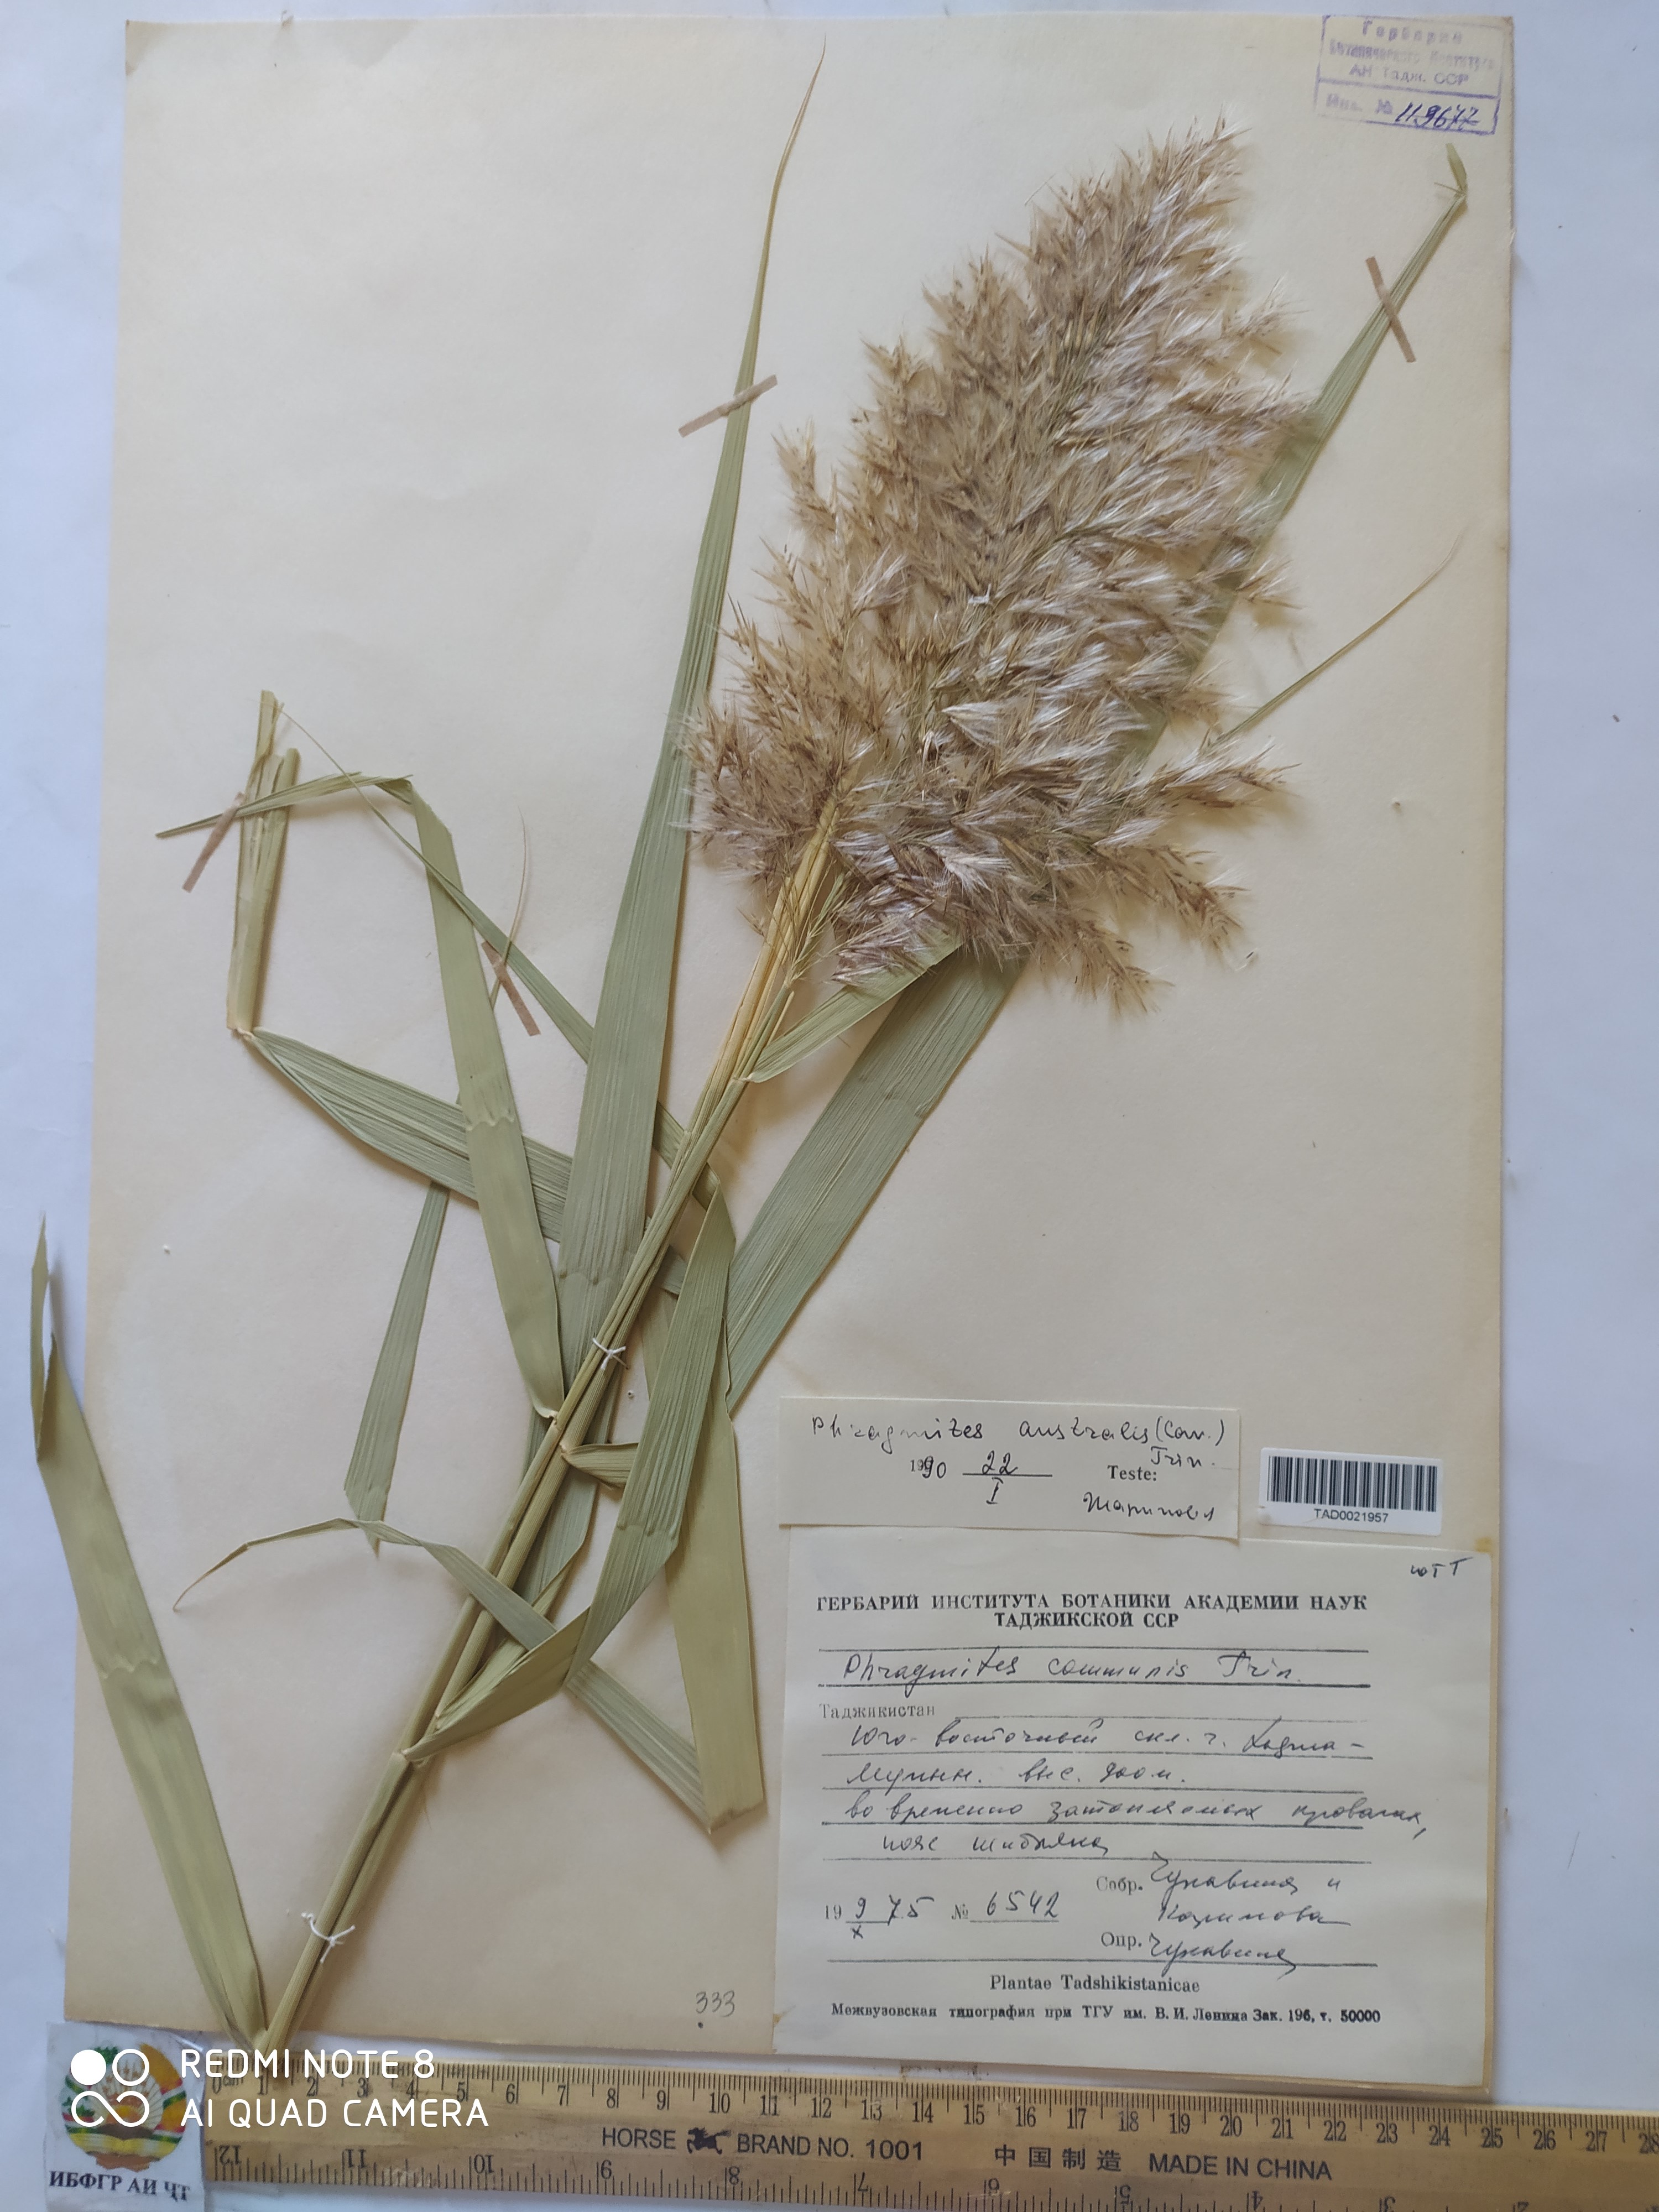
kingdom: Plantae
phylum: Tracheophyta
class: Liliopsida
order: Poales
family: Poaceae
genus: Phragmites
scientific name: Phragmites australis
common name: Common reed
